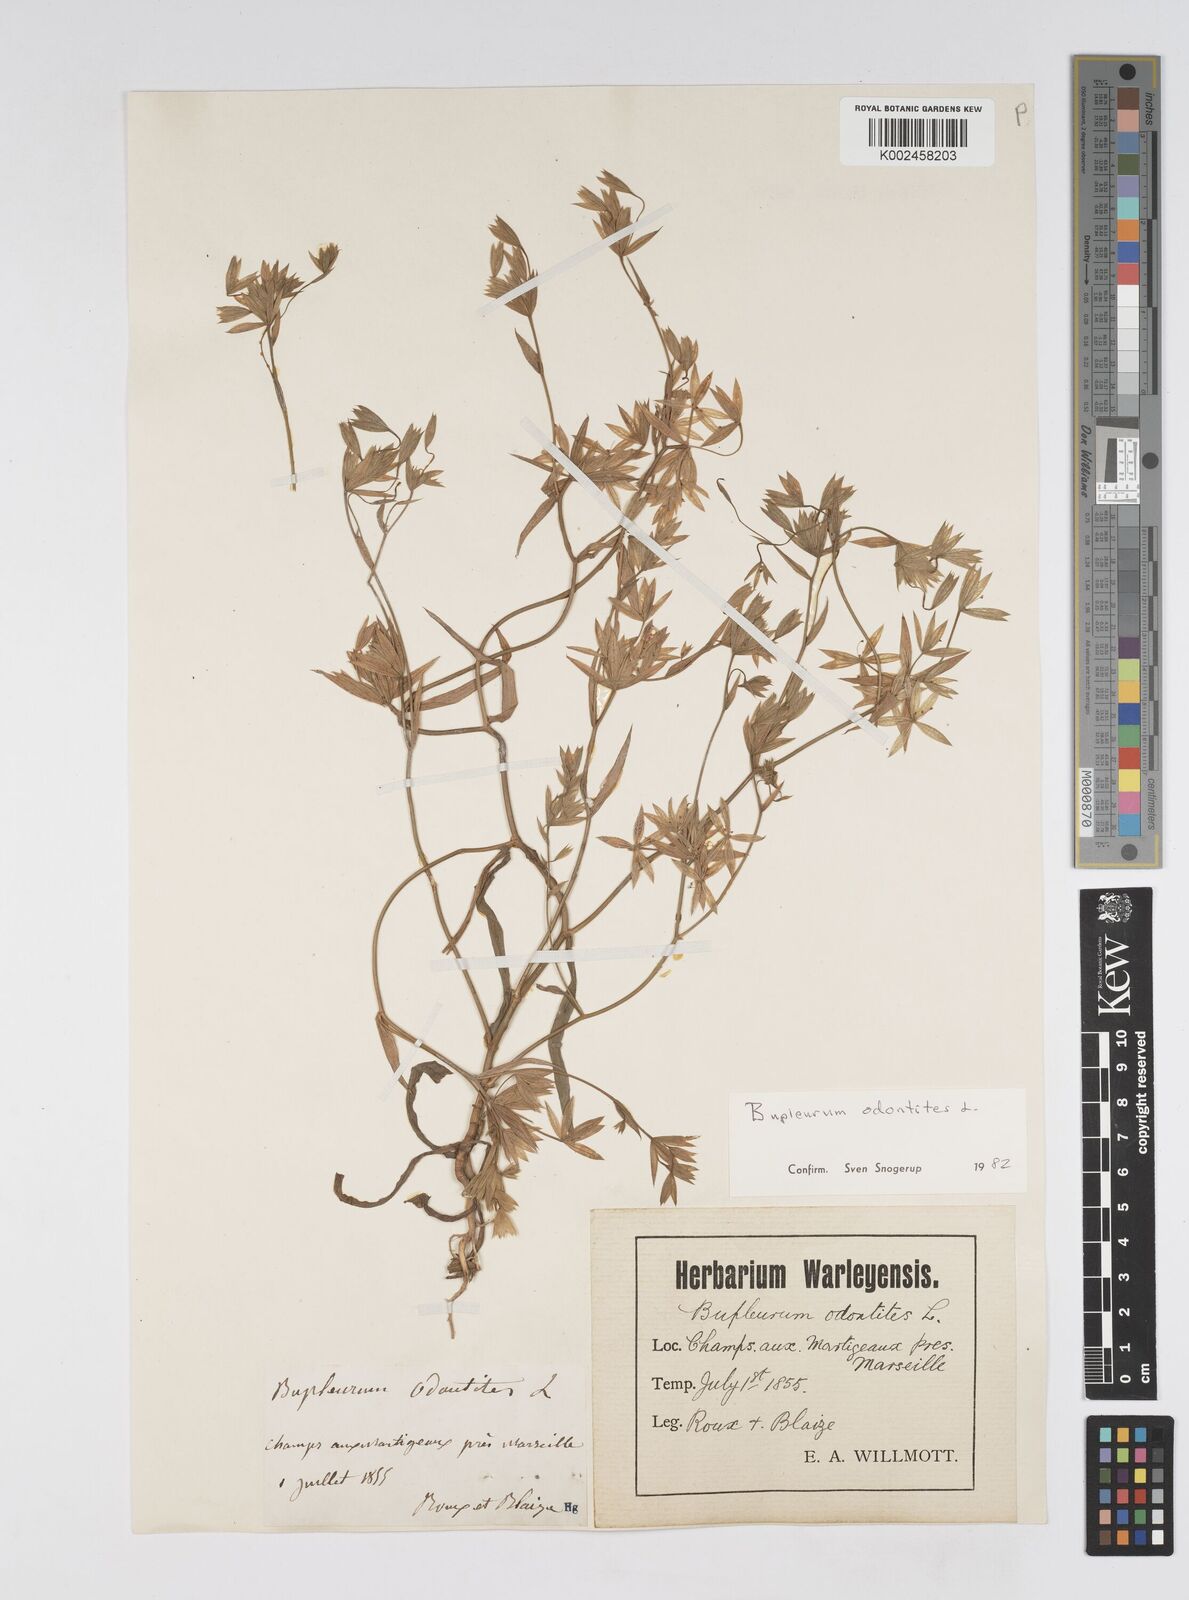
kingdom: Plantae
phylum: Tracheophyta
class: Magnoliopsida
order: Apiales
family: Apiaceae
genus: Bupleurum
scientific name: Bupleurum odontites
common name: Narrowleaf thorow wax
